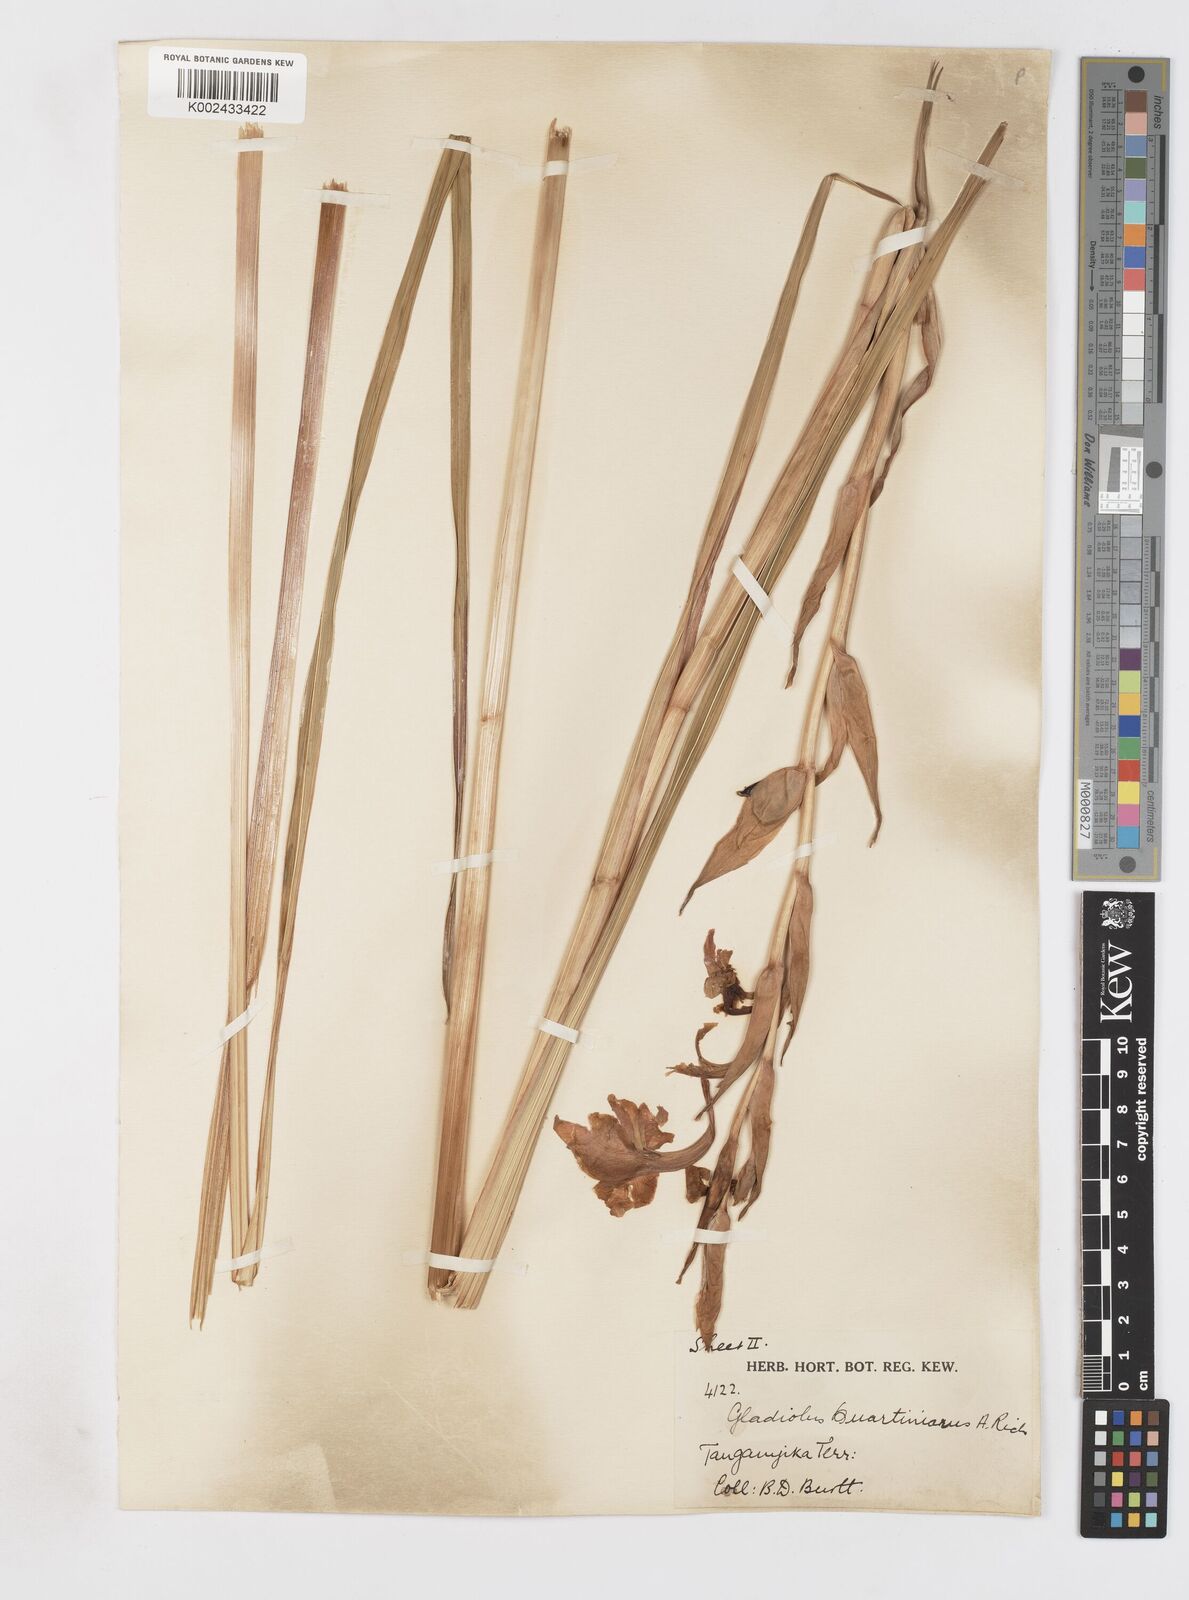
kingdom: Plantae
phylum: Tracheophyta
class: Liliopsida
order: Asparagales
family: Iridaceae
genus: Gladiolus
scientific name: Gladiolus dalenii
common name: Cornflag
